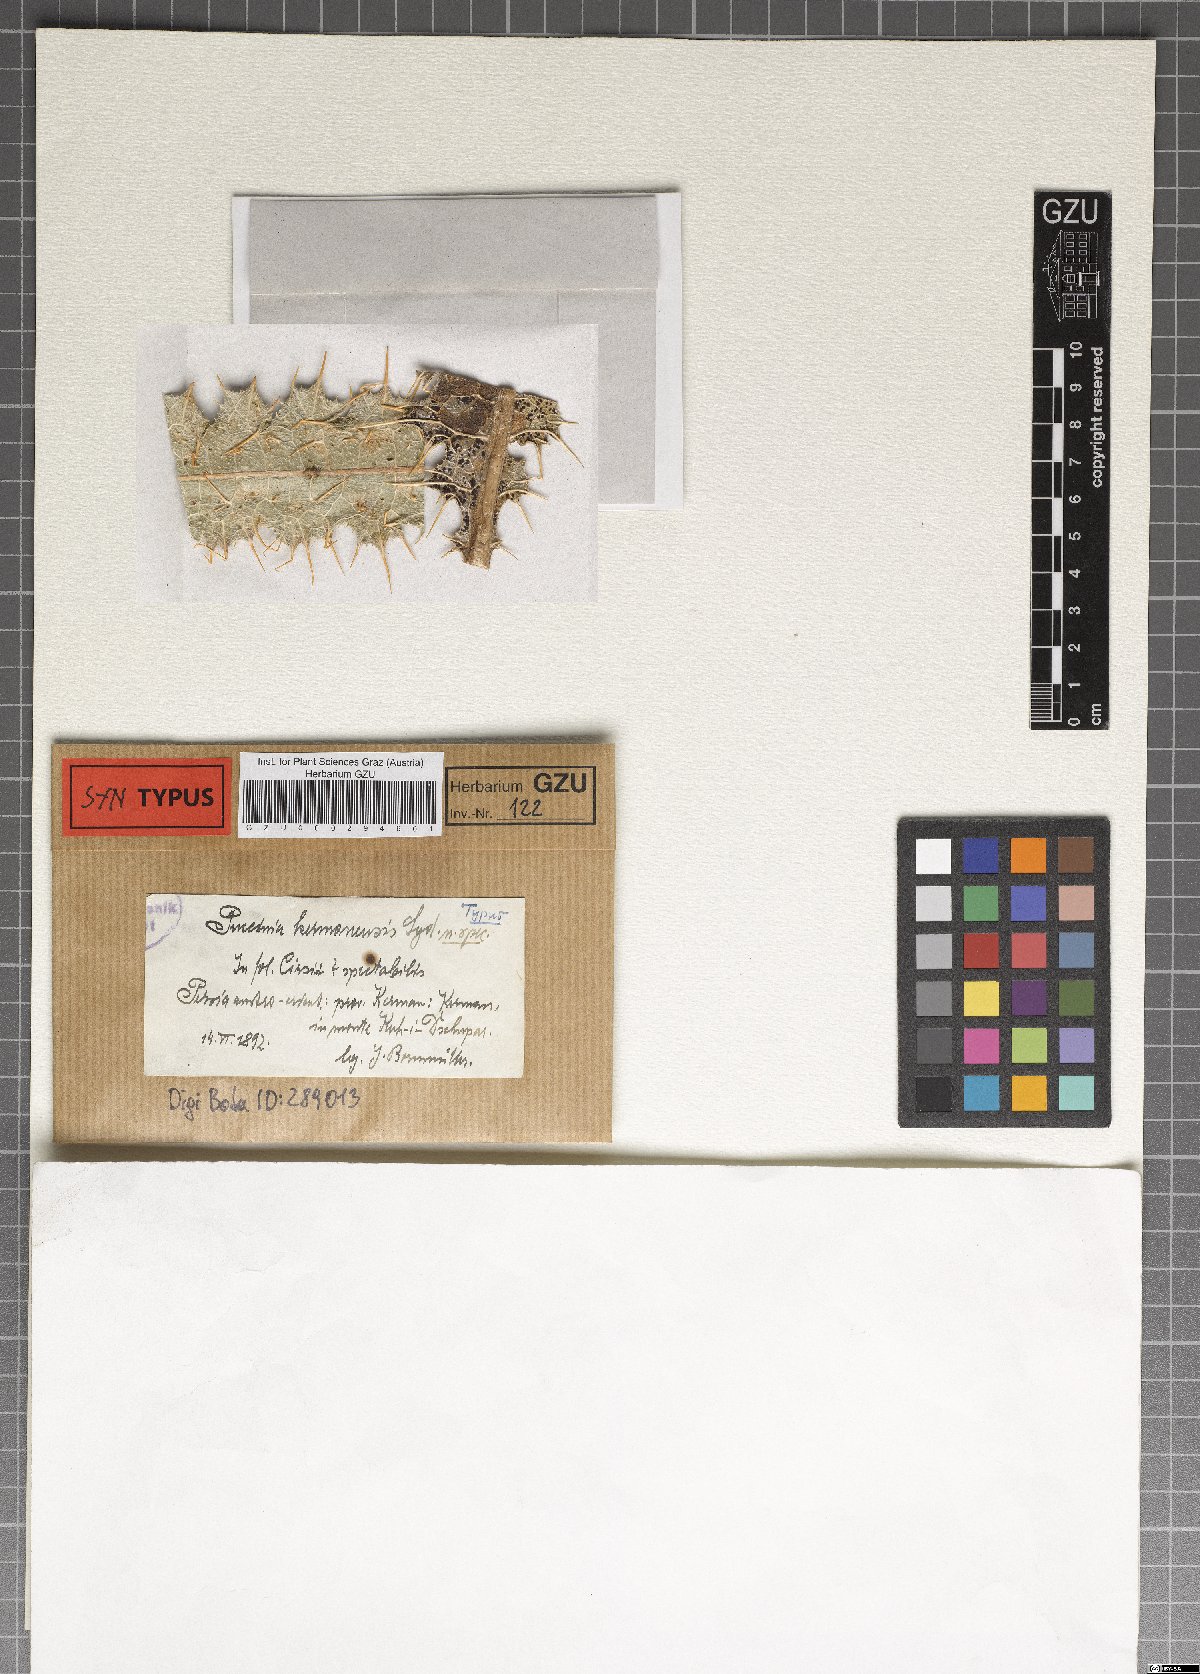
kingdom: Fungi
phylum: Basidiomycota
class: Pucciniomycetes
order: Pucciniales
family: Pucciniaceae
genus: Puccinia
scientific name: Puccinia kermanensis
